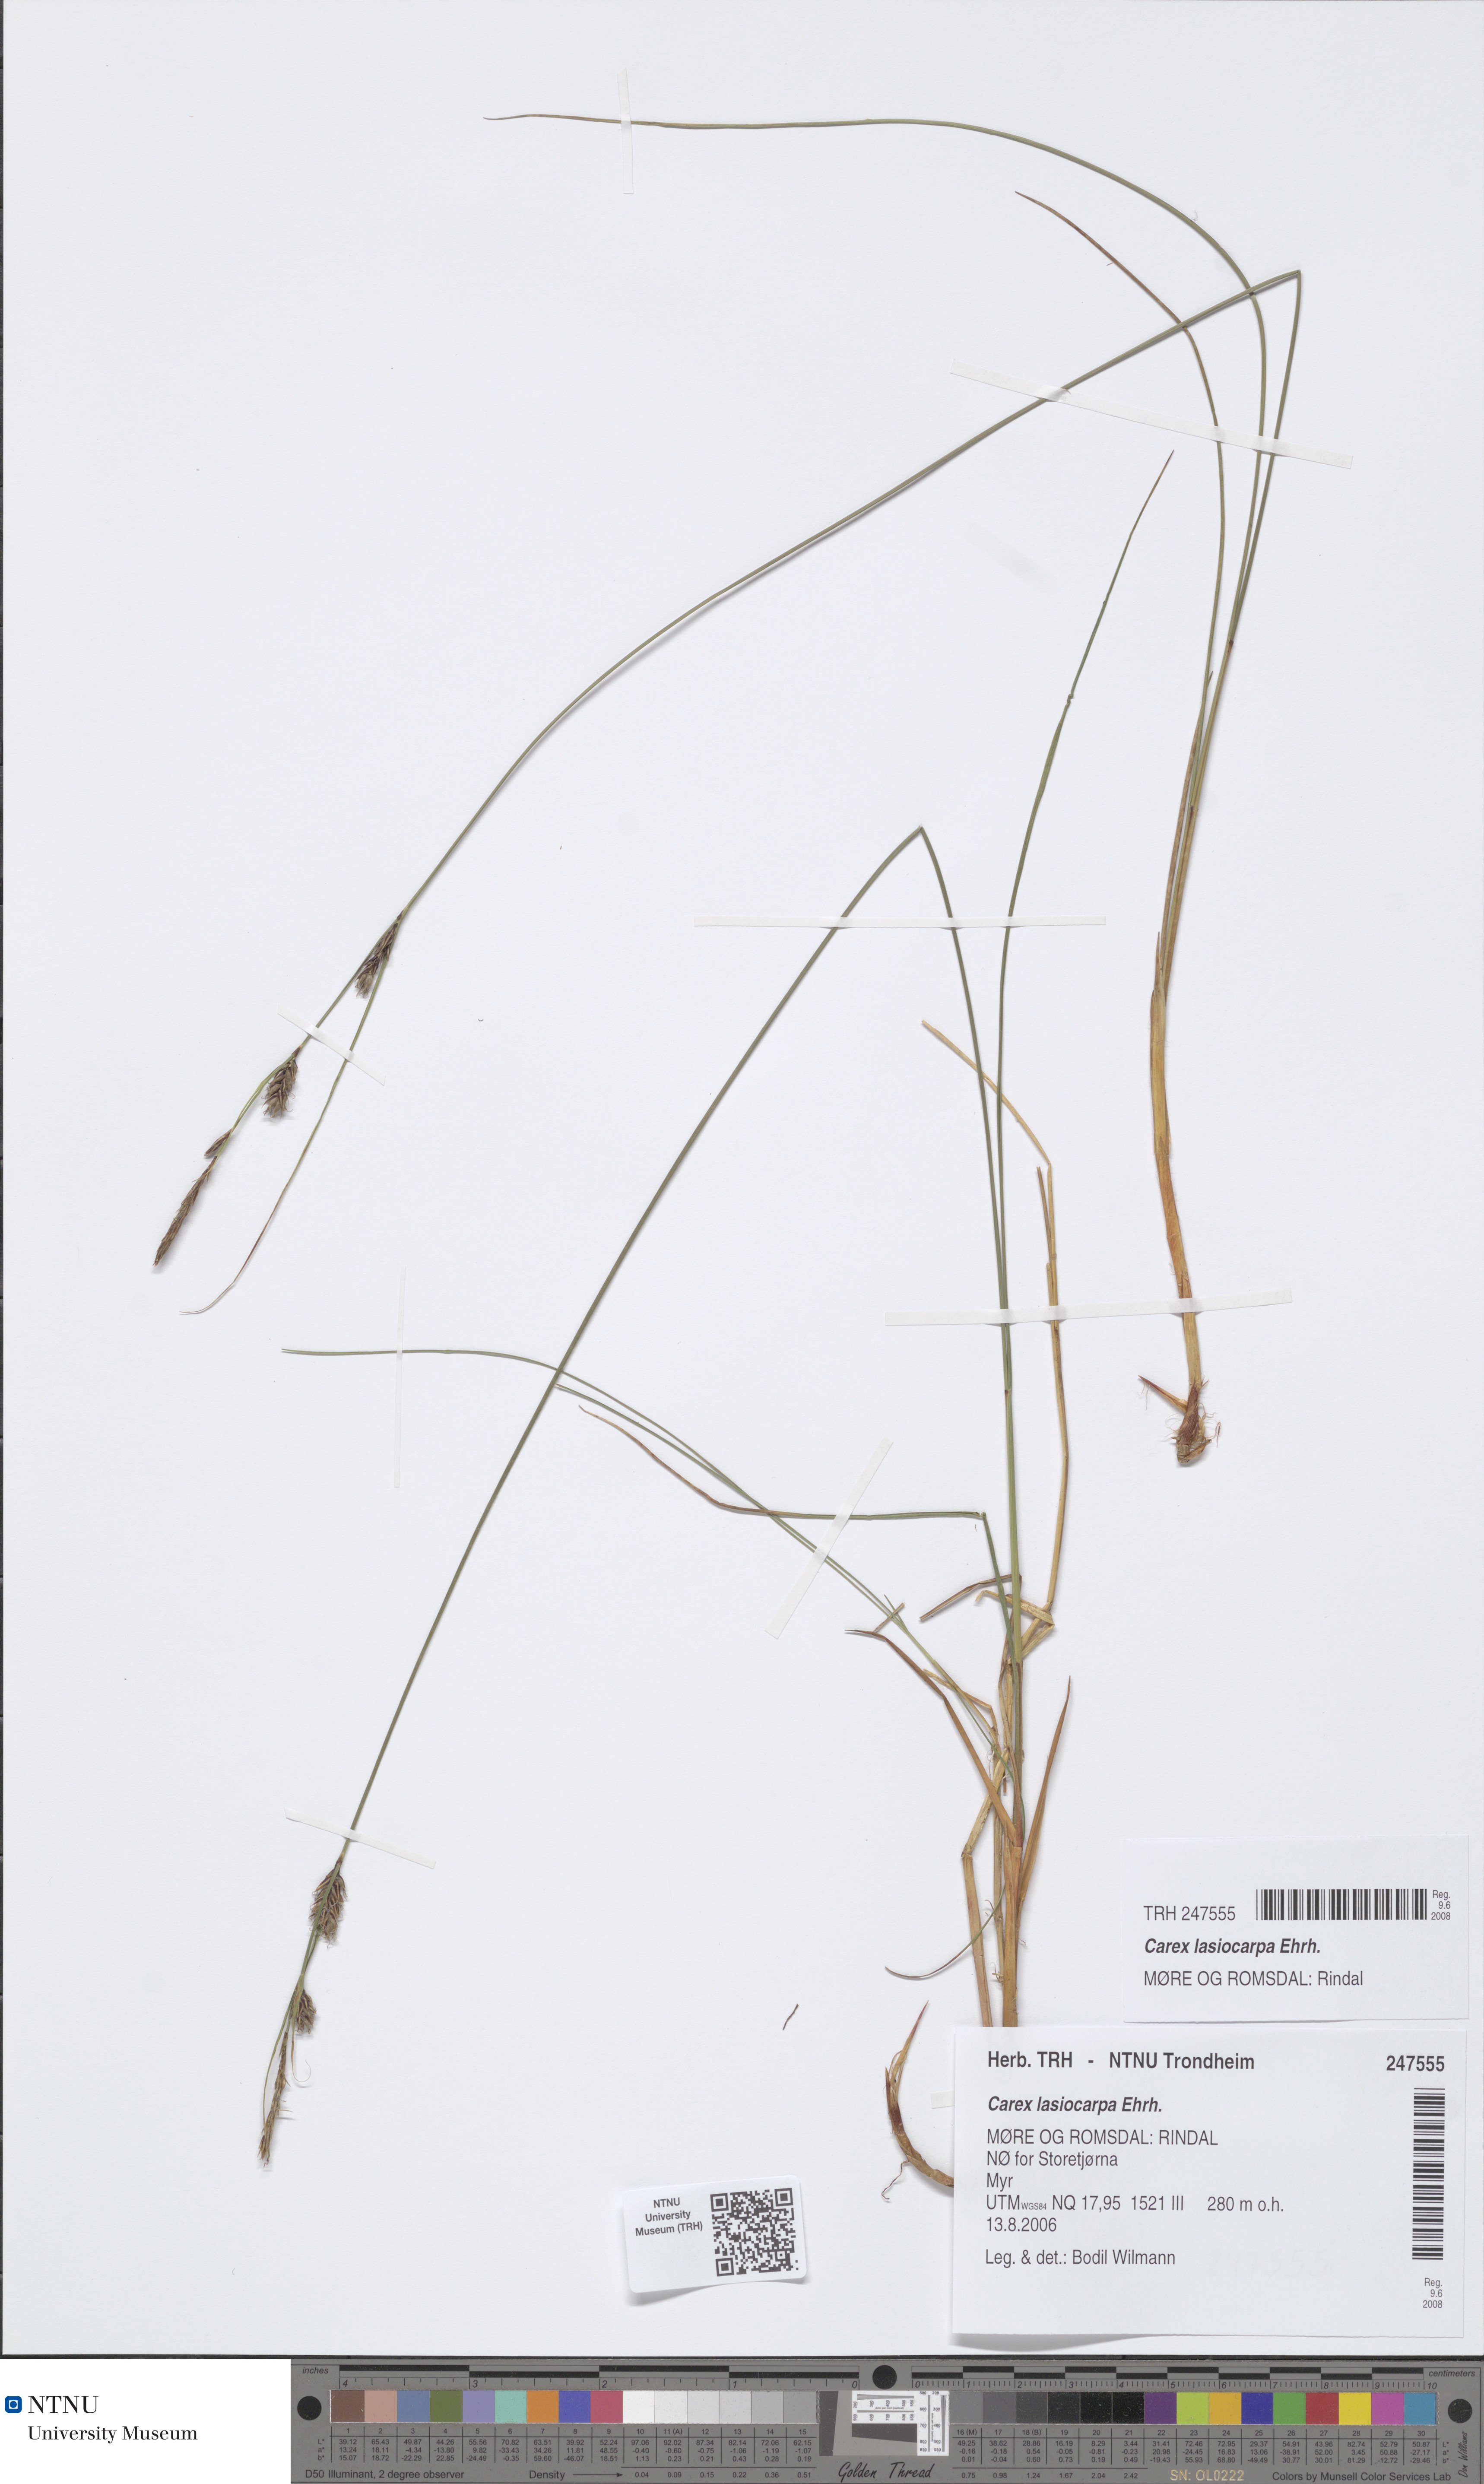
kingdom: Plantae
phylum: Tracheophyta
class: Liliopsida
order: Poales
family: Cyperaceae
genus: Carex
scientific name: Carex lasiocarpa
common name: Slender sedge
